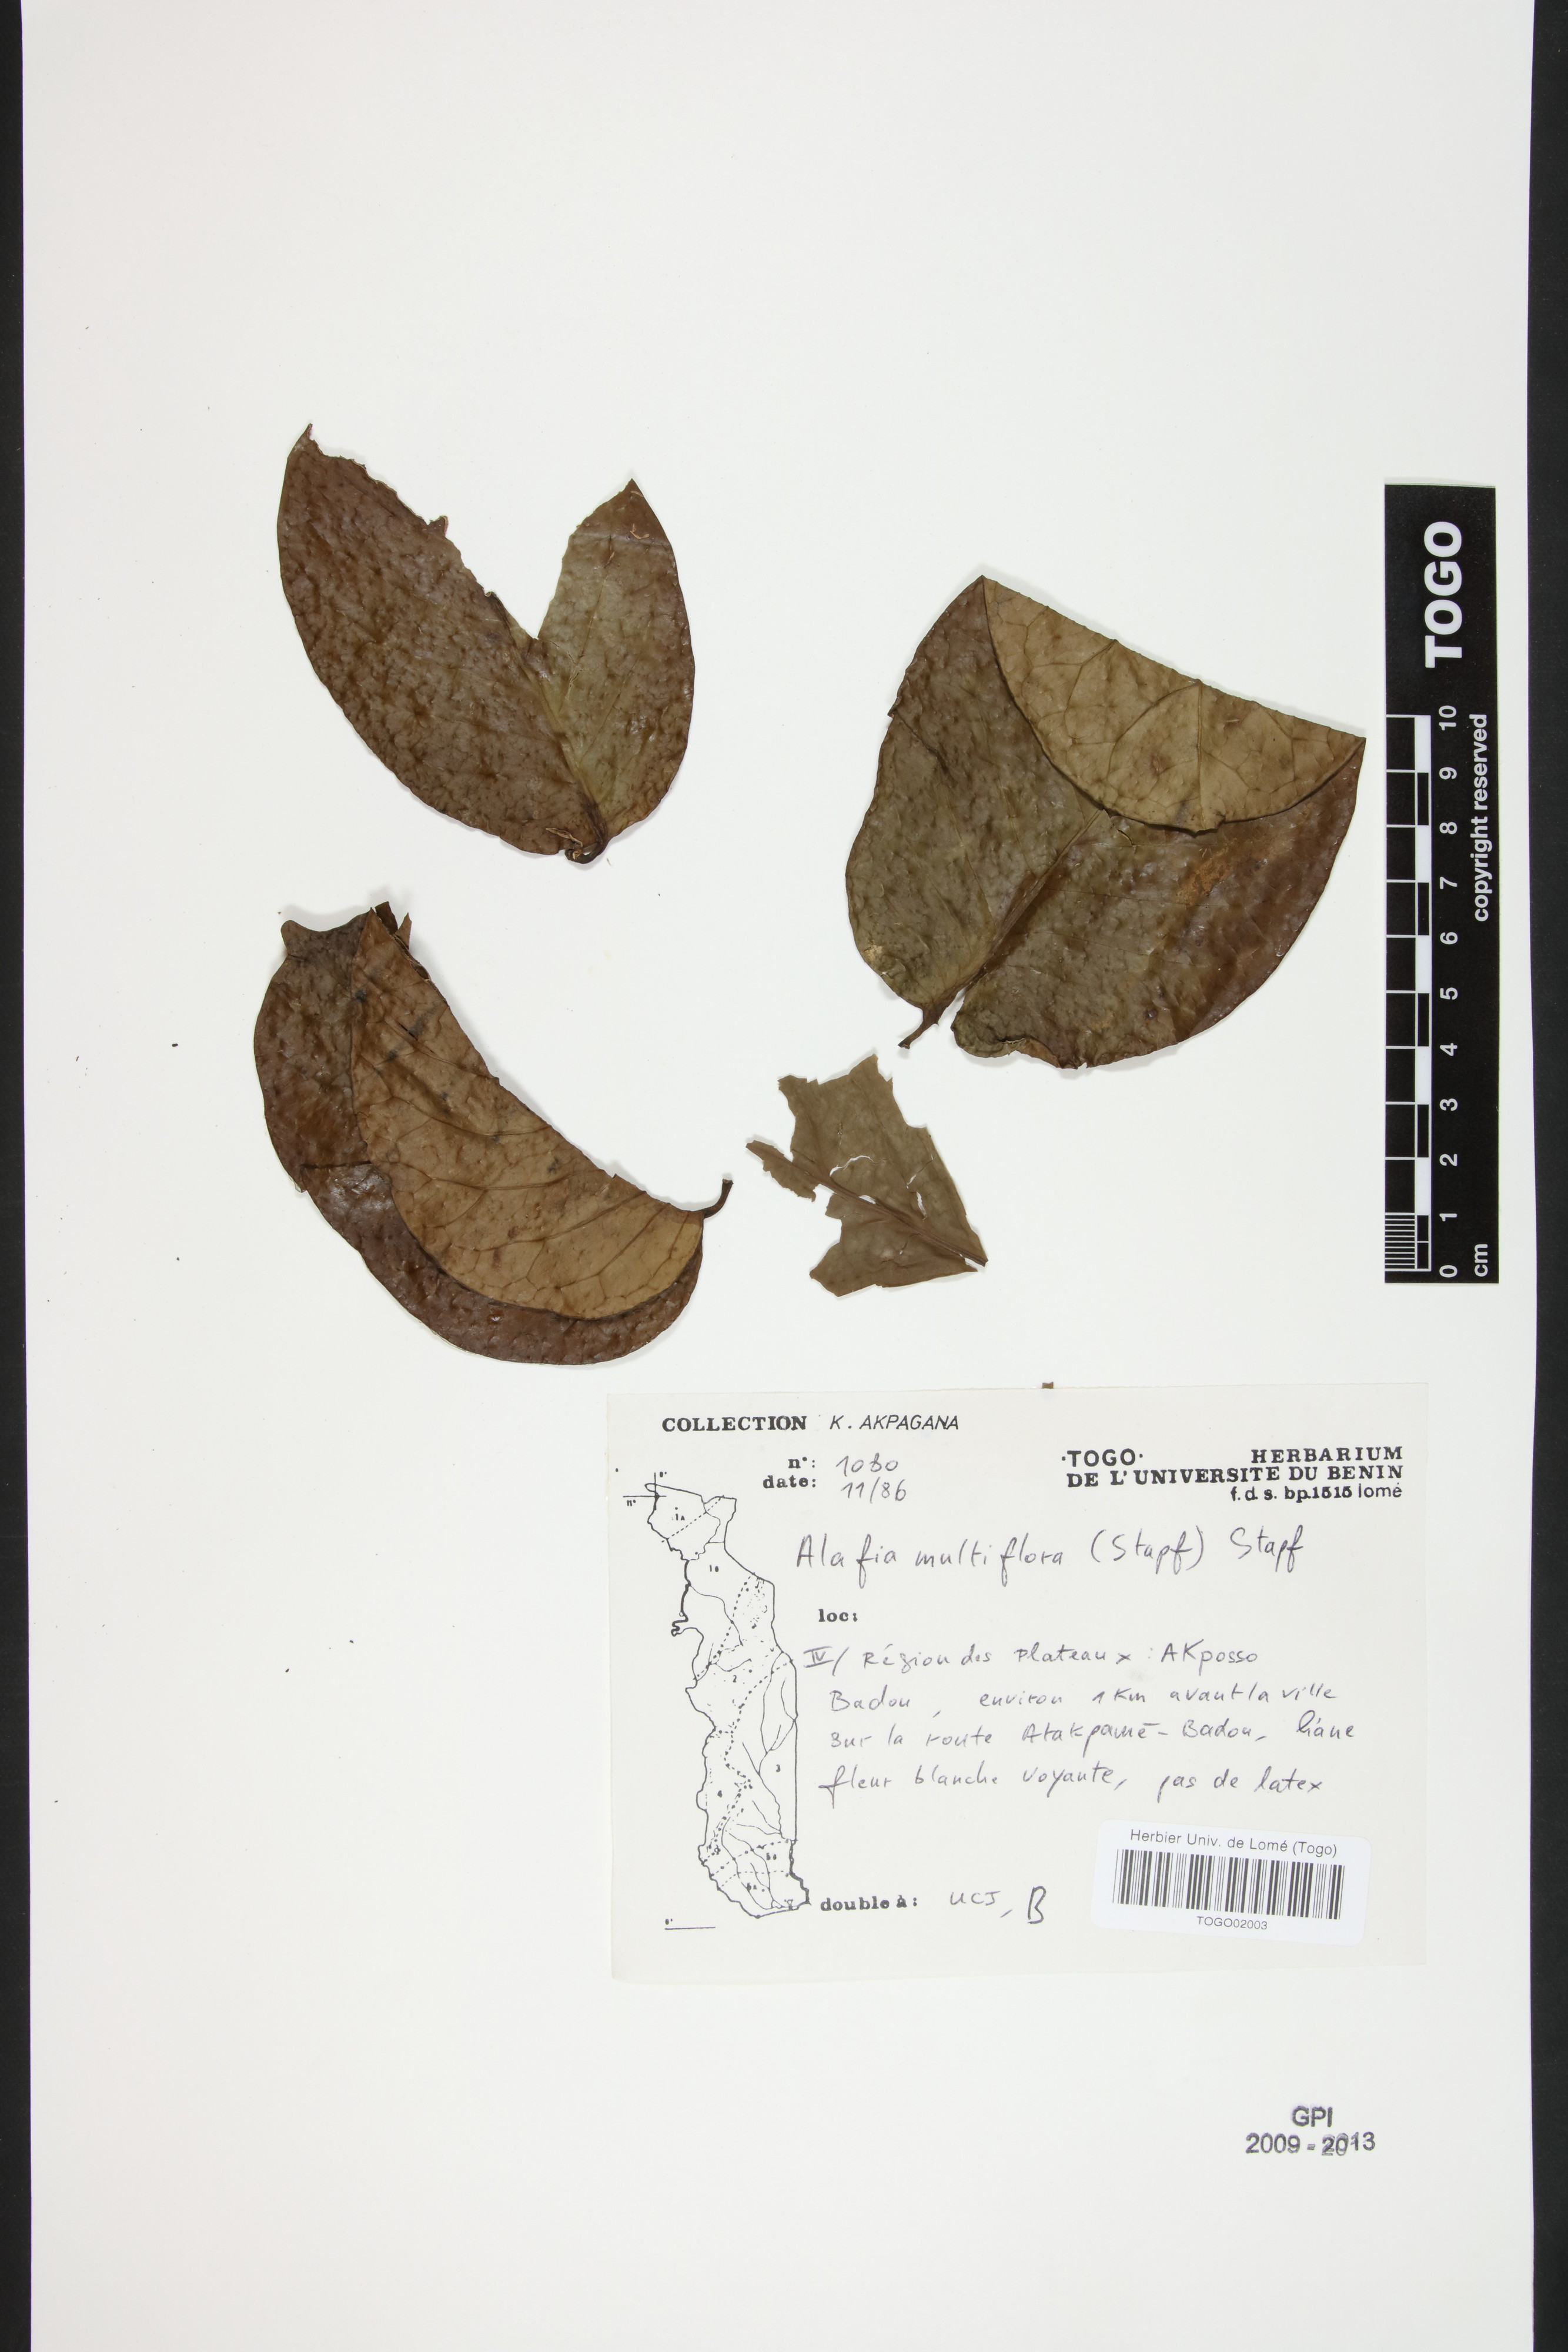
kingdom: Plantae
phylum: Tracheophyta
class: Magnoliopsida
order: Gentianales
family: Apocynaceae
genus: Alafia
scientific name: Alafia multiflora
